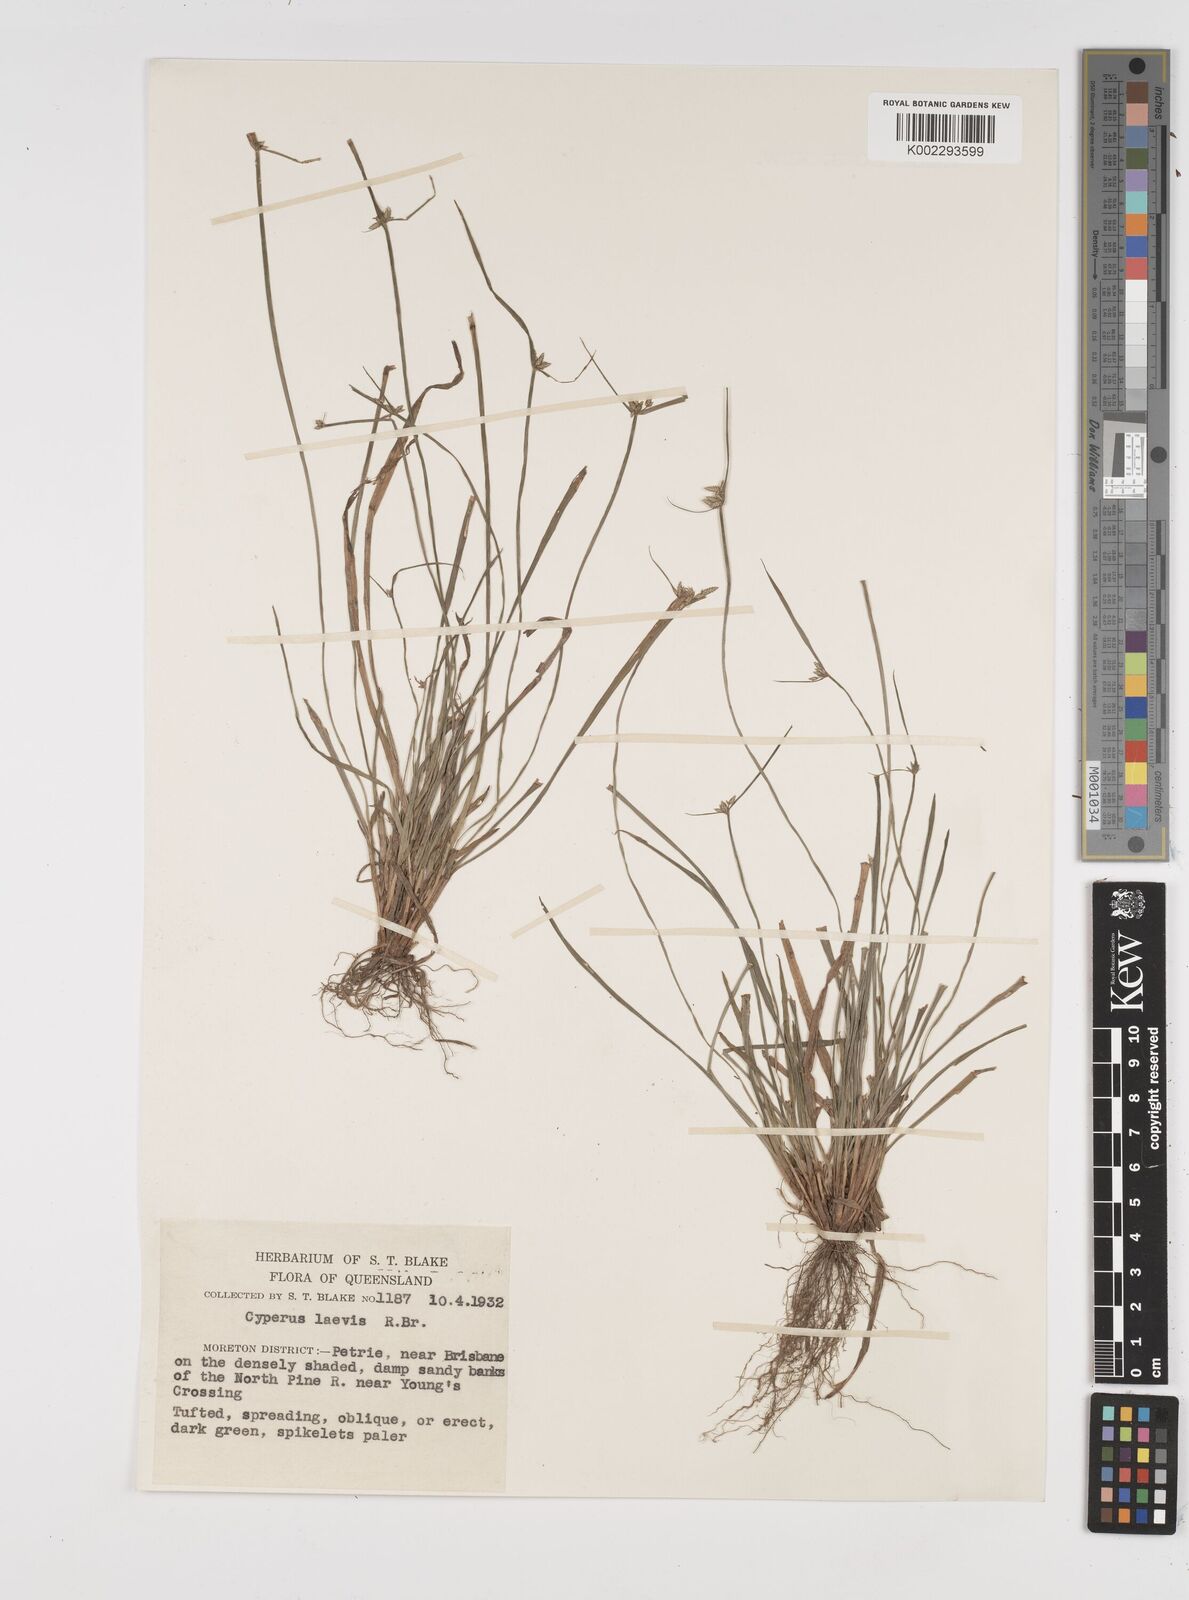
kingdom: Plantae
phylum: Tracheophyta
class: Liliopsida
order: Poales
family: Cyperaceae
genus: Cyperus
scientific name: Cyperus laevis
